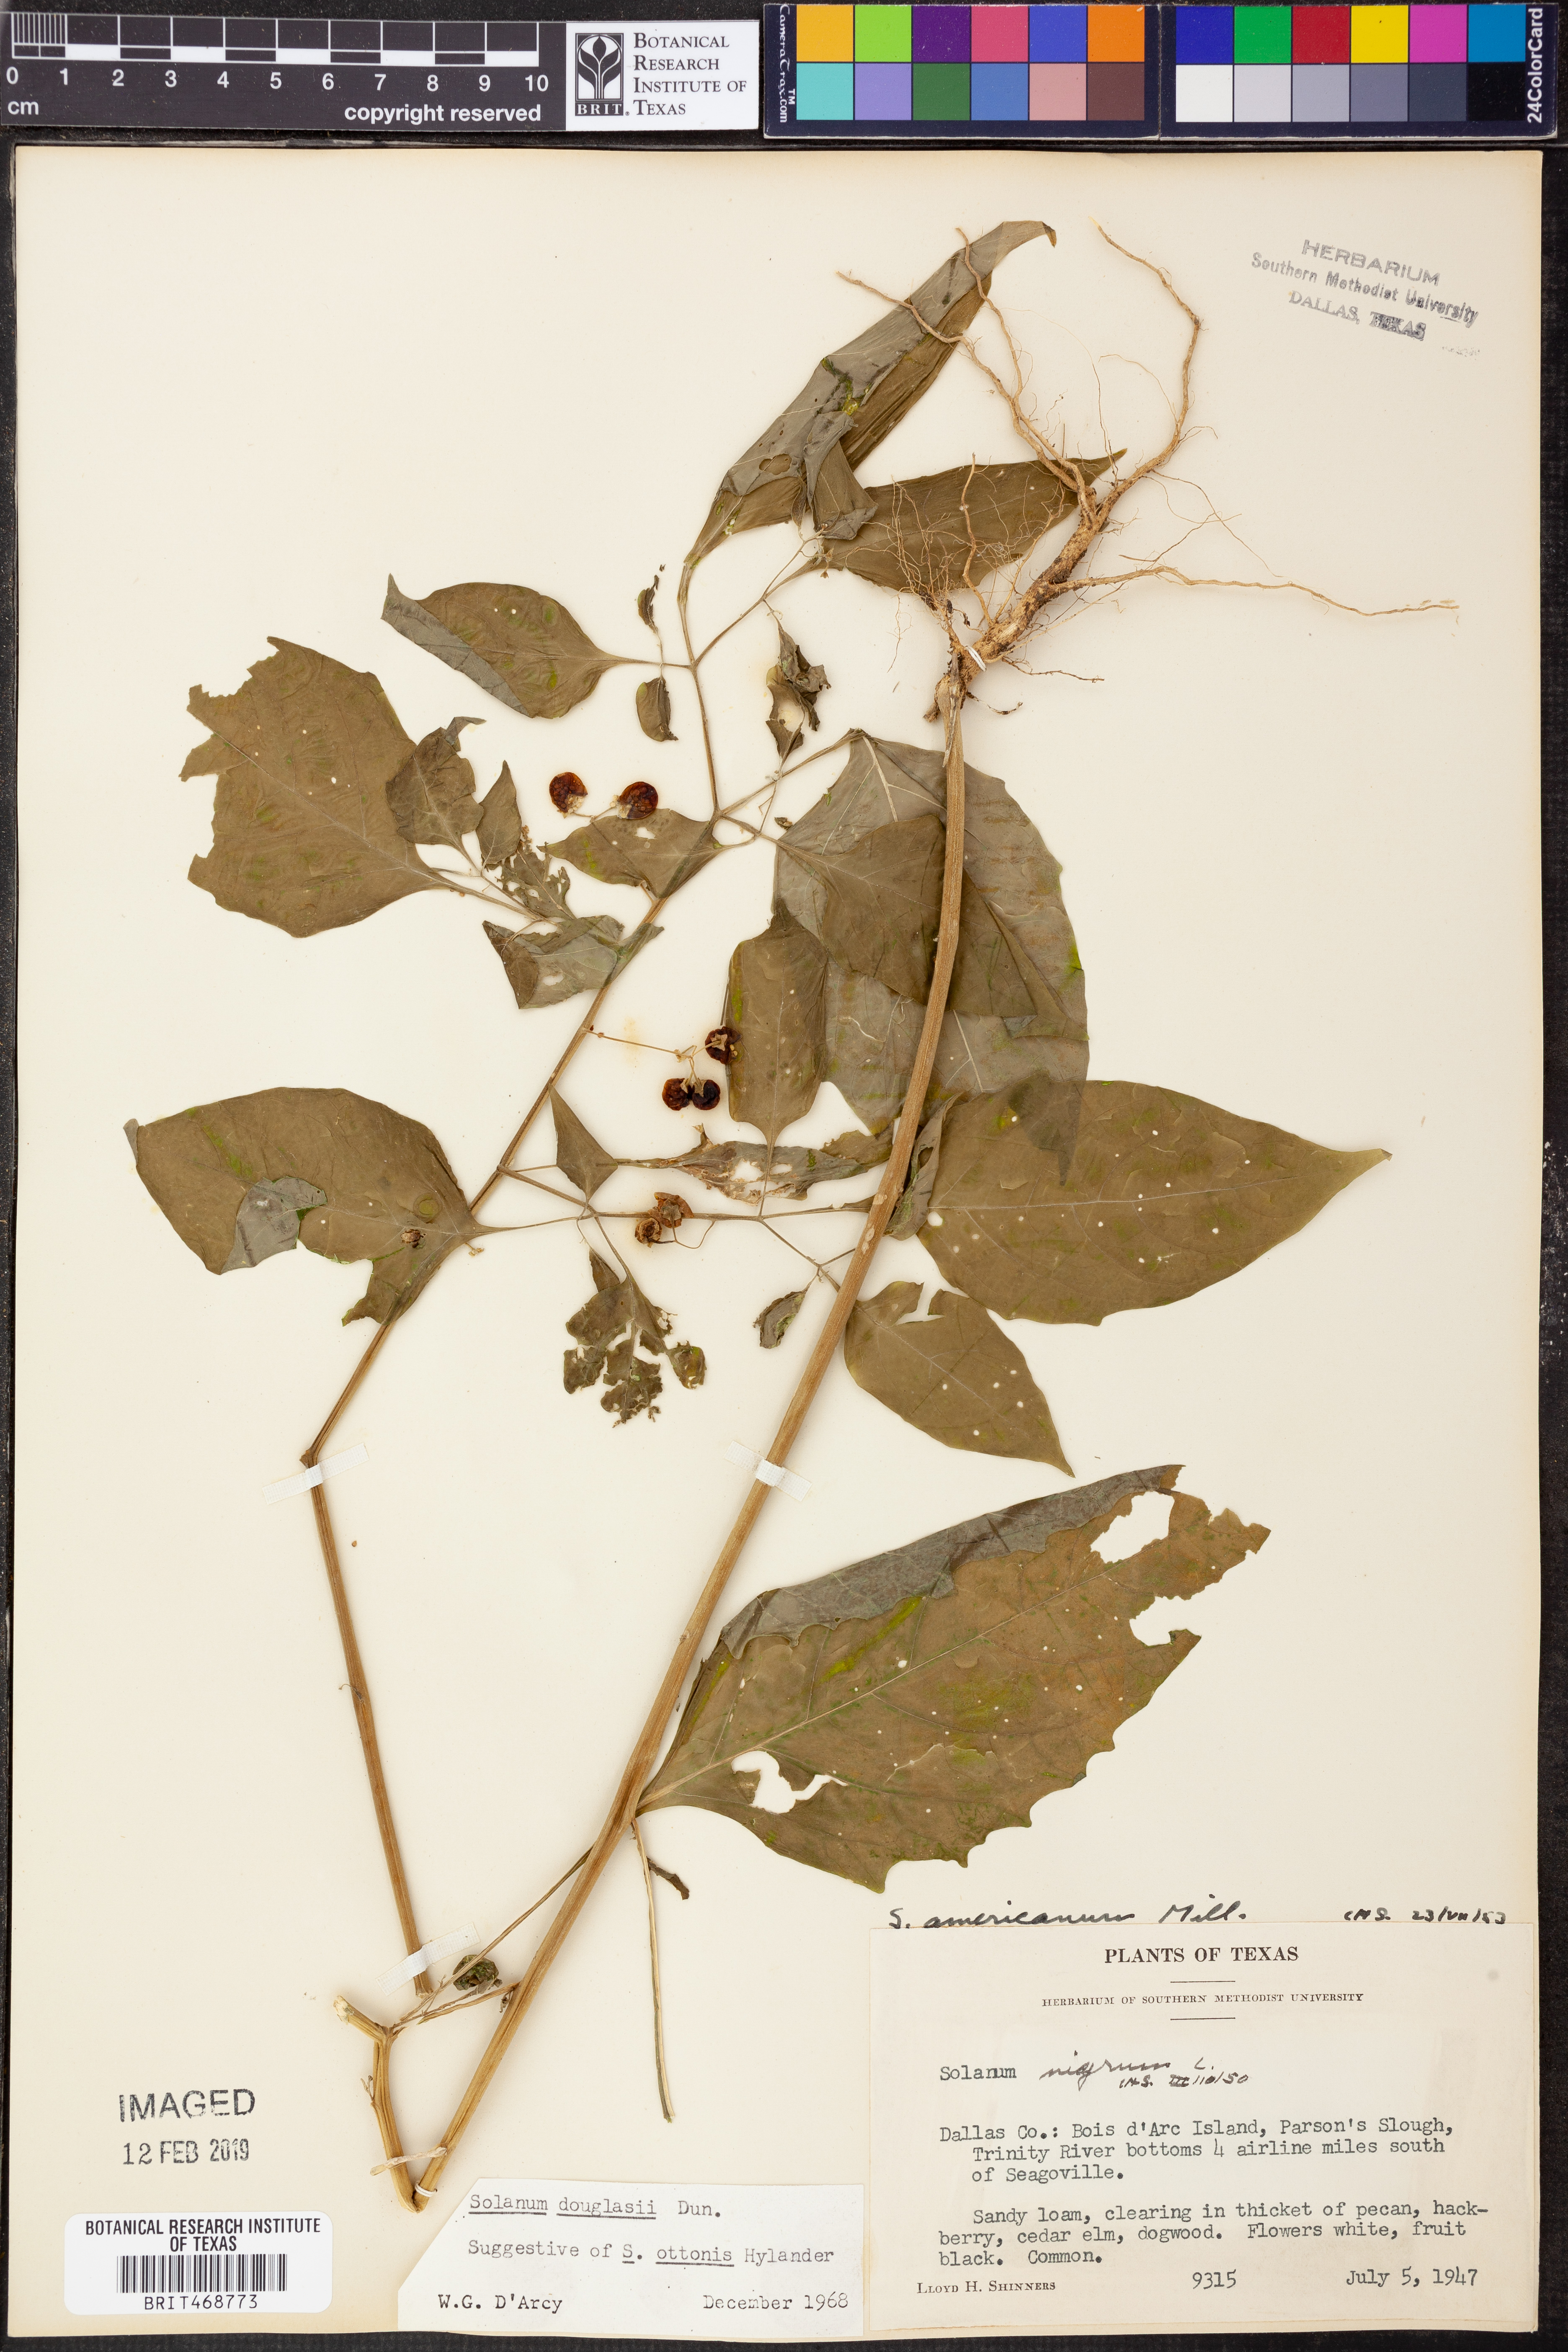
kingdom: Plantae
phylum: Tracheophyta
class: Magnoliopsida
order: Solanales
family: Solanaceae
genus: Solanum
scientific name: Solanum douglasii
